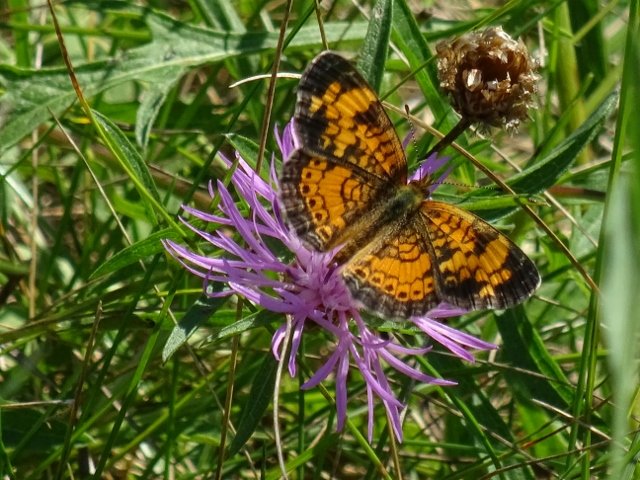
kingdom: Animalia
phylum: Arthropoda
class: Insecta
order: Lepidoptera
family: Nymphalidae
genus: Phyciodes
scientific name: Phyciodes tharos
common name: Pearl Crescent
